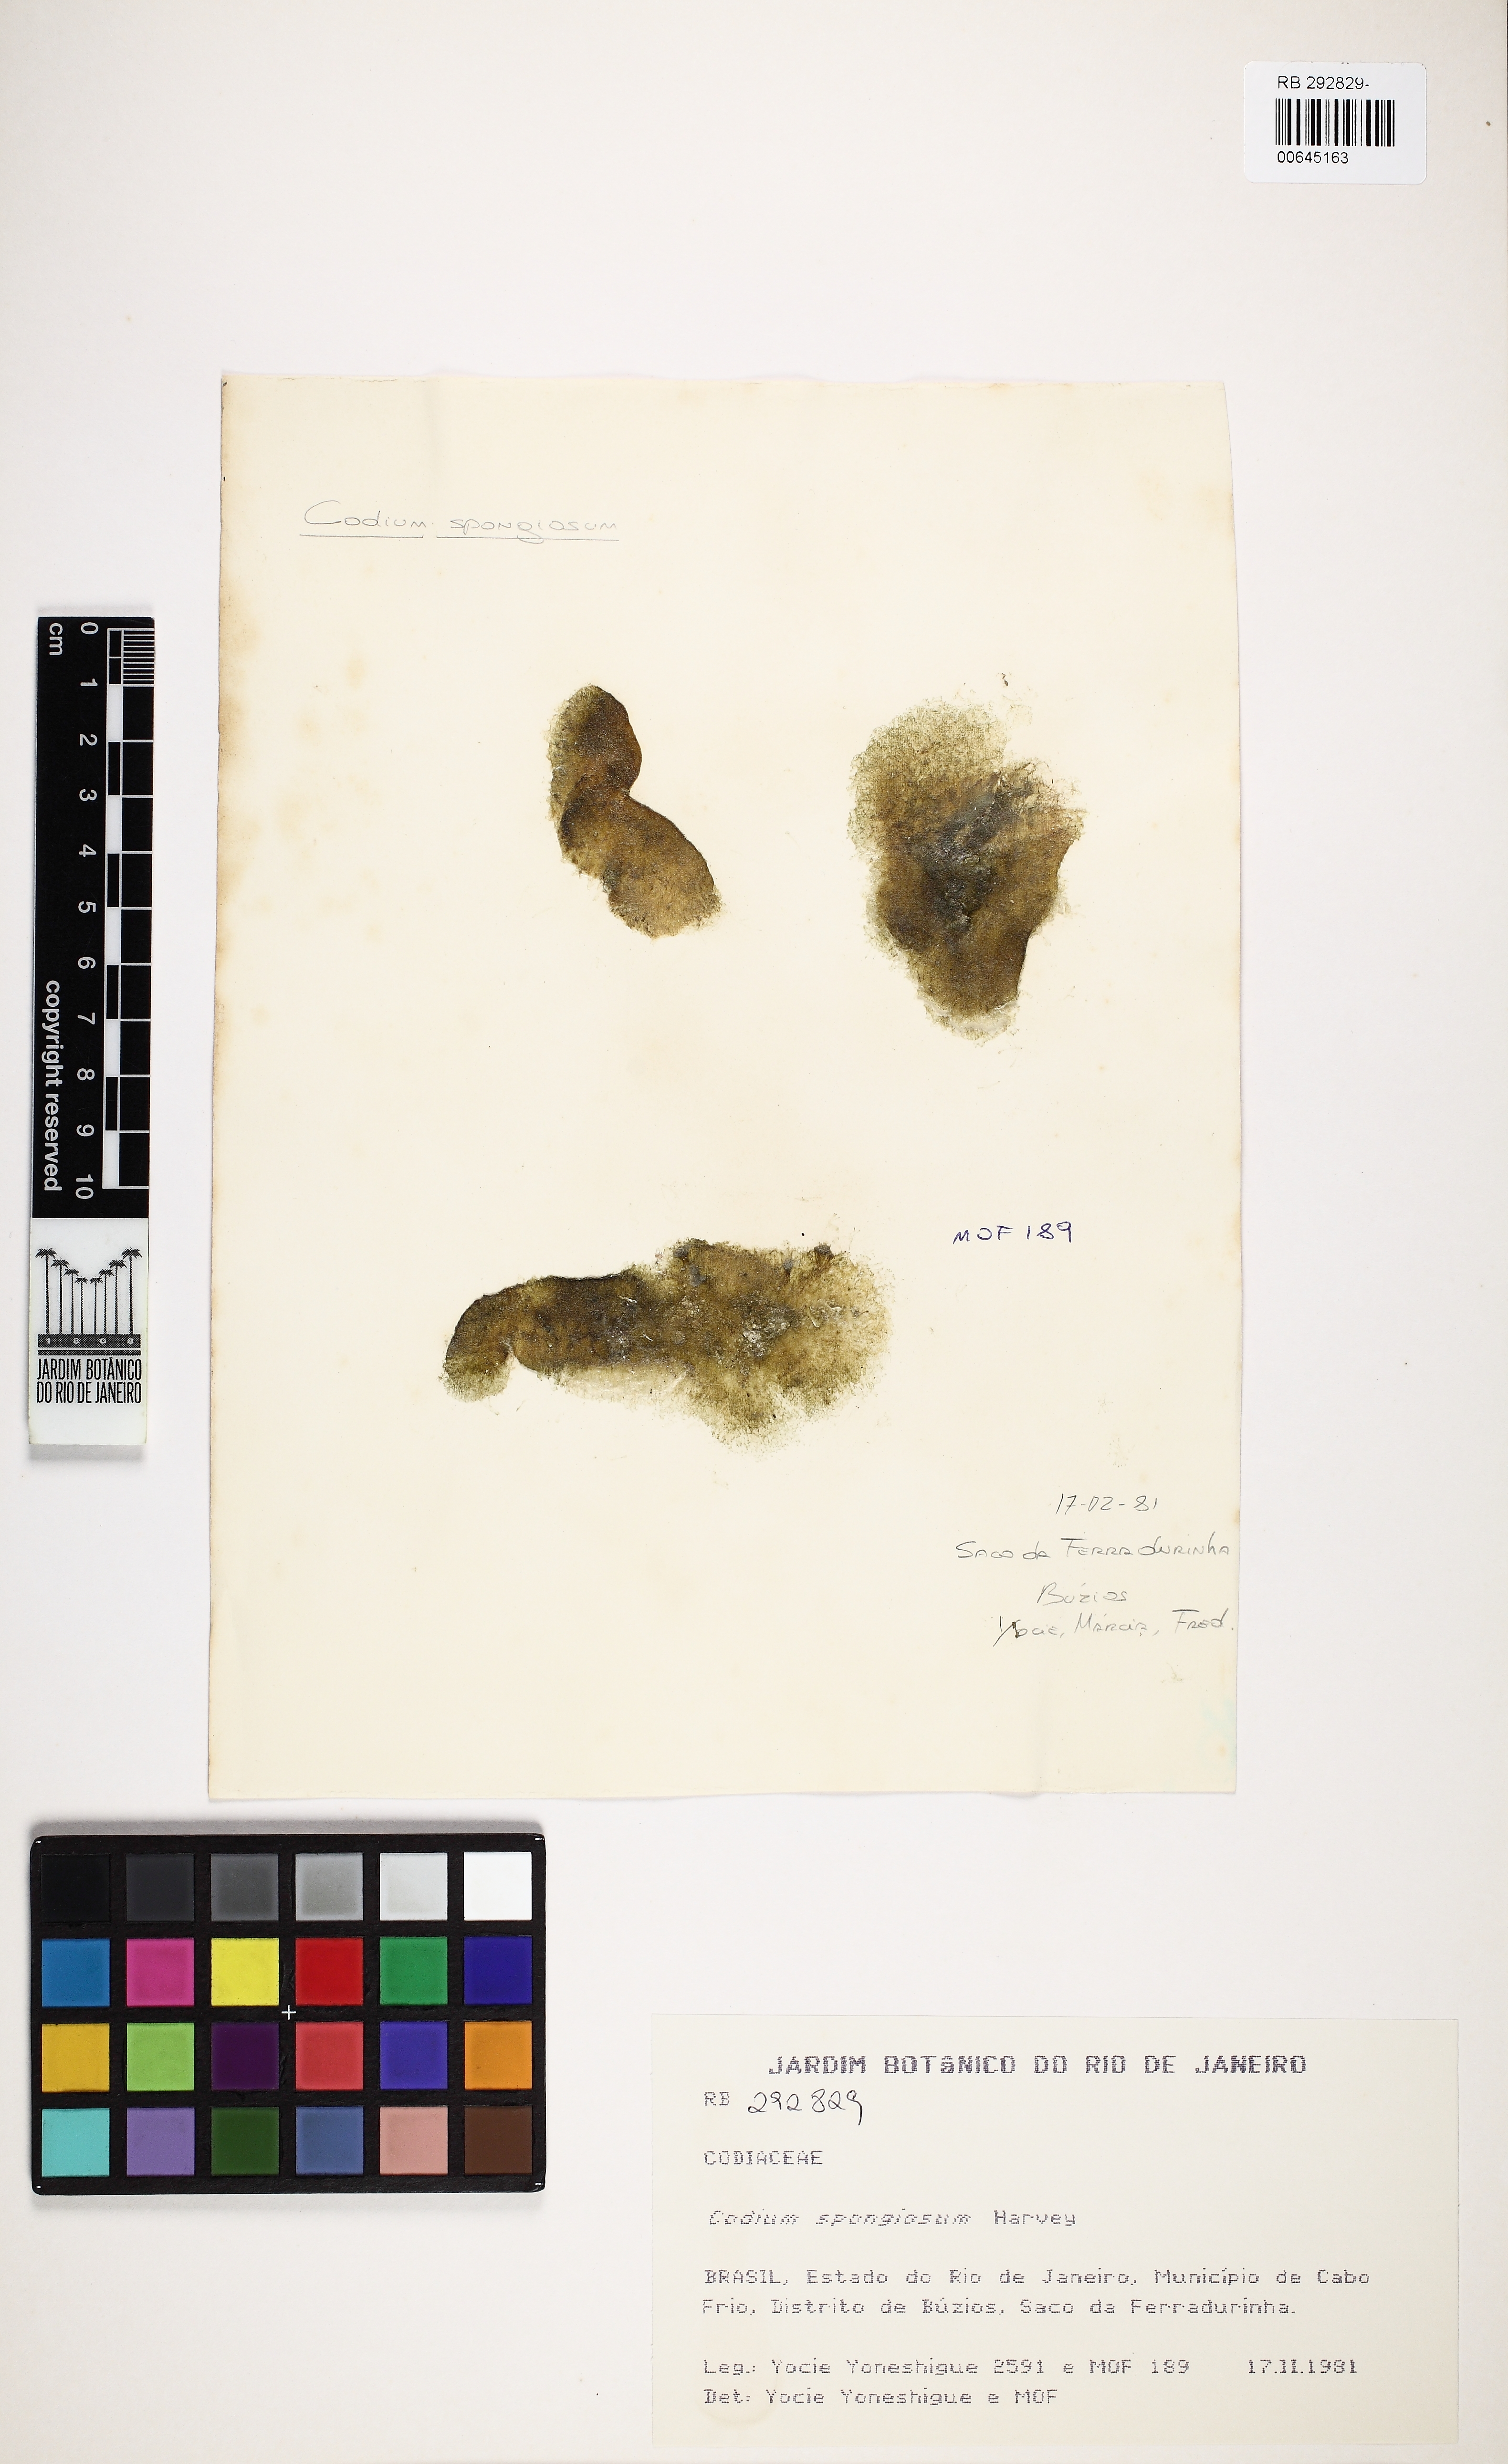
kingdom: Plantae
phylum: Chlorophyta
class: Ulvophyceae
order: Bryopsidales
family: Codiaceae
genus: Codium
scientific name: Codium spongiosum
